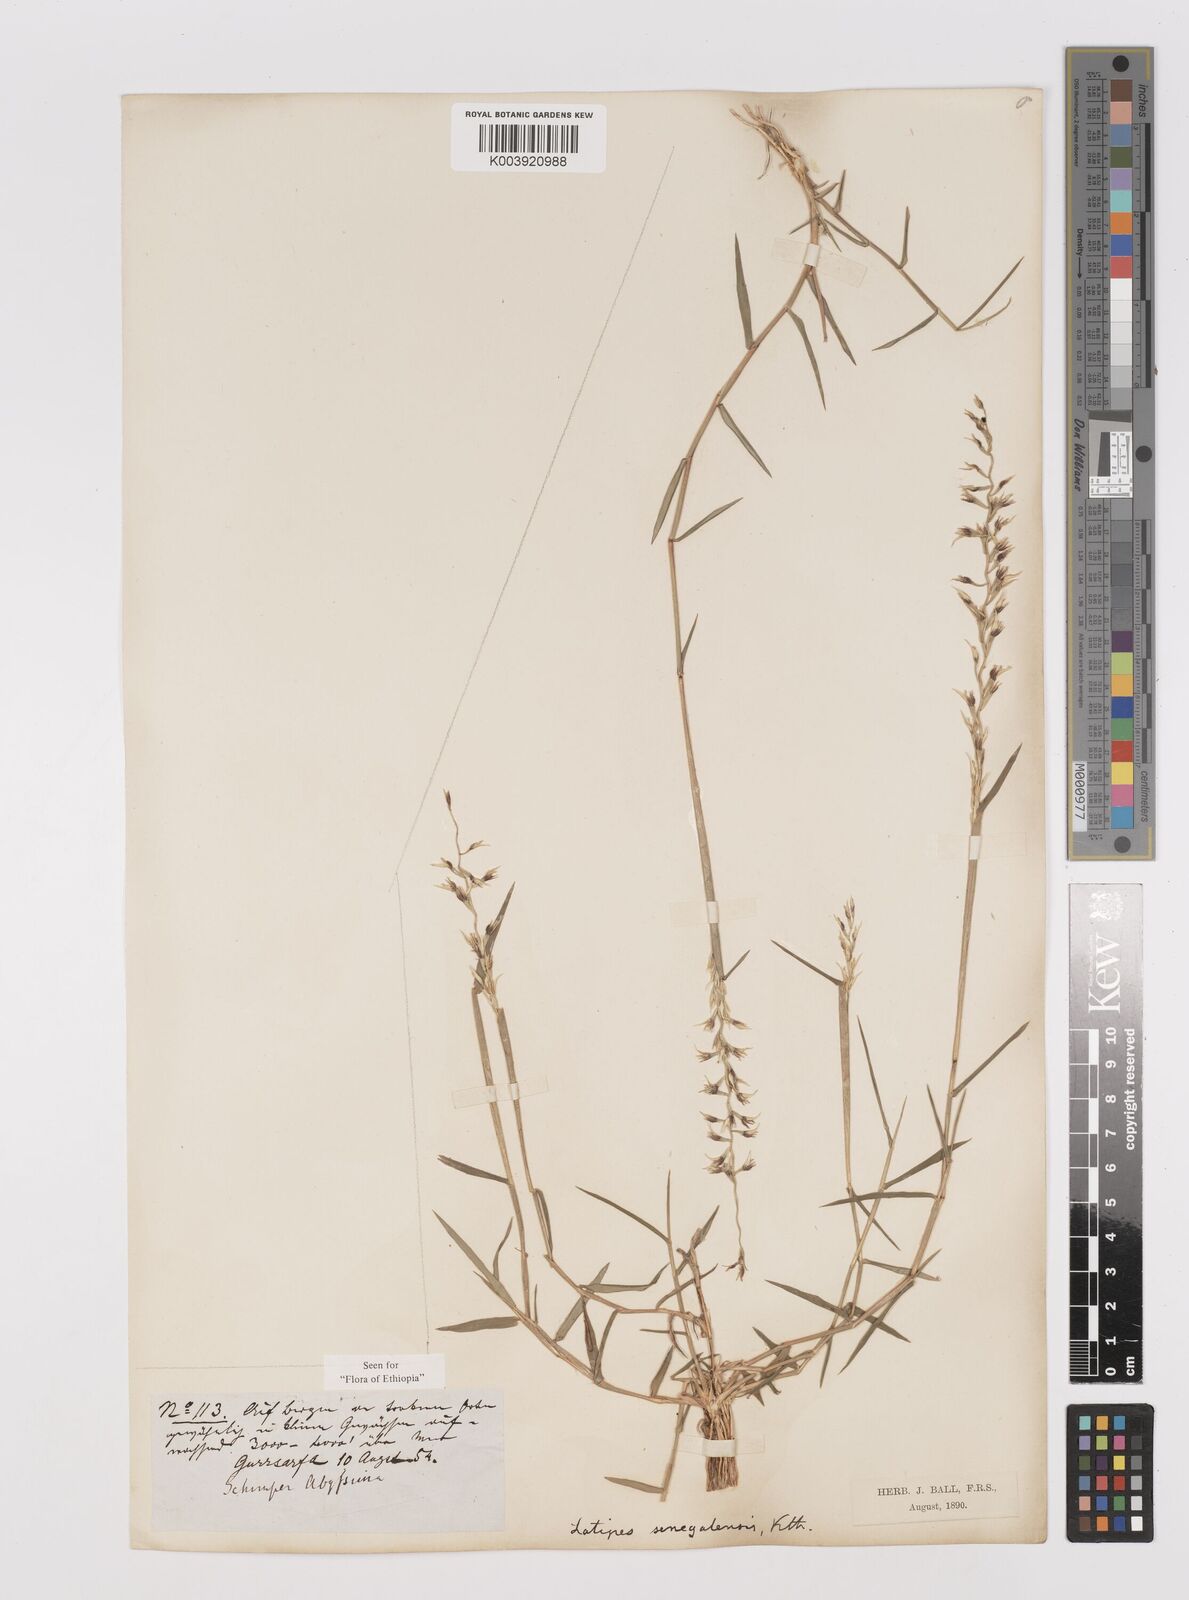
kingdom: Plantae
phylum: Tracheophyta
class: Liliopsida
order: Poales
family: Poaceae
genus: Leptothrium
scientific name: Leptothrium senegalense
